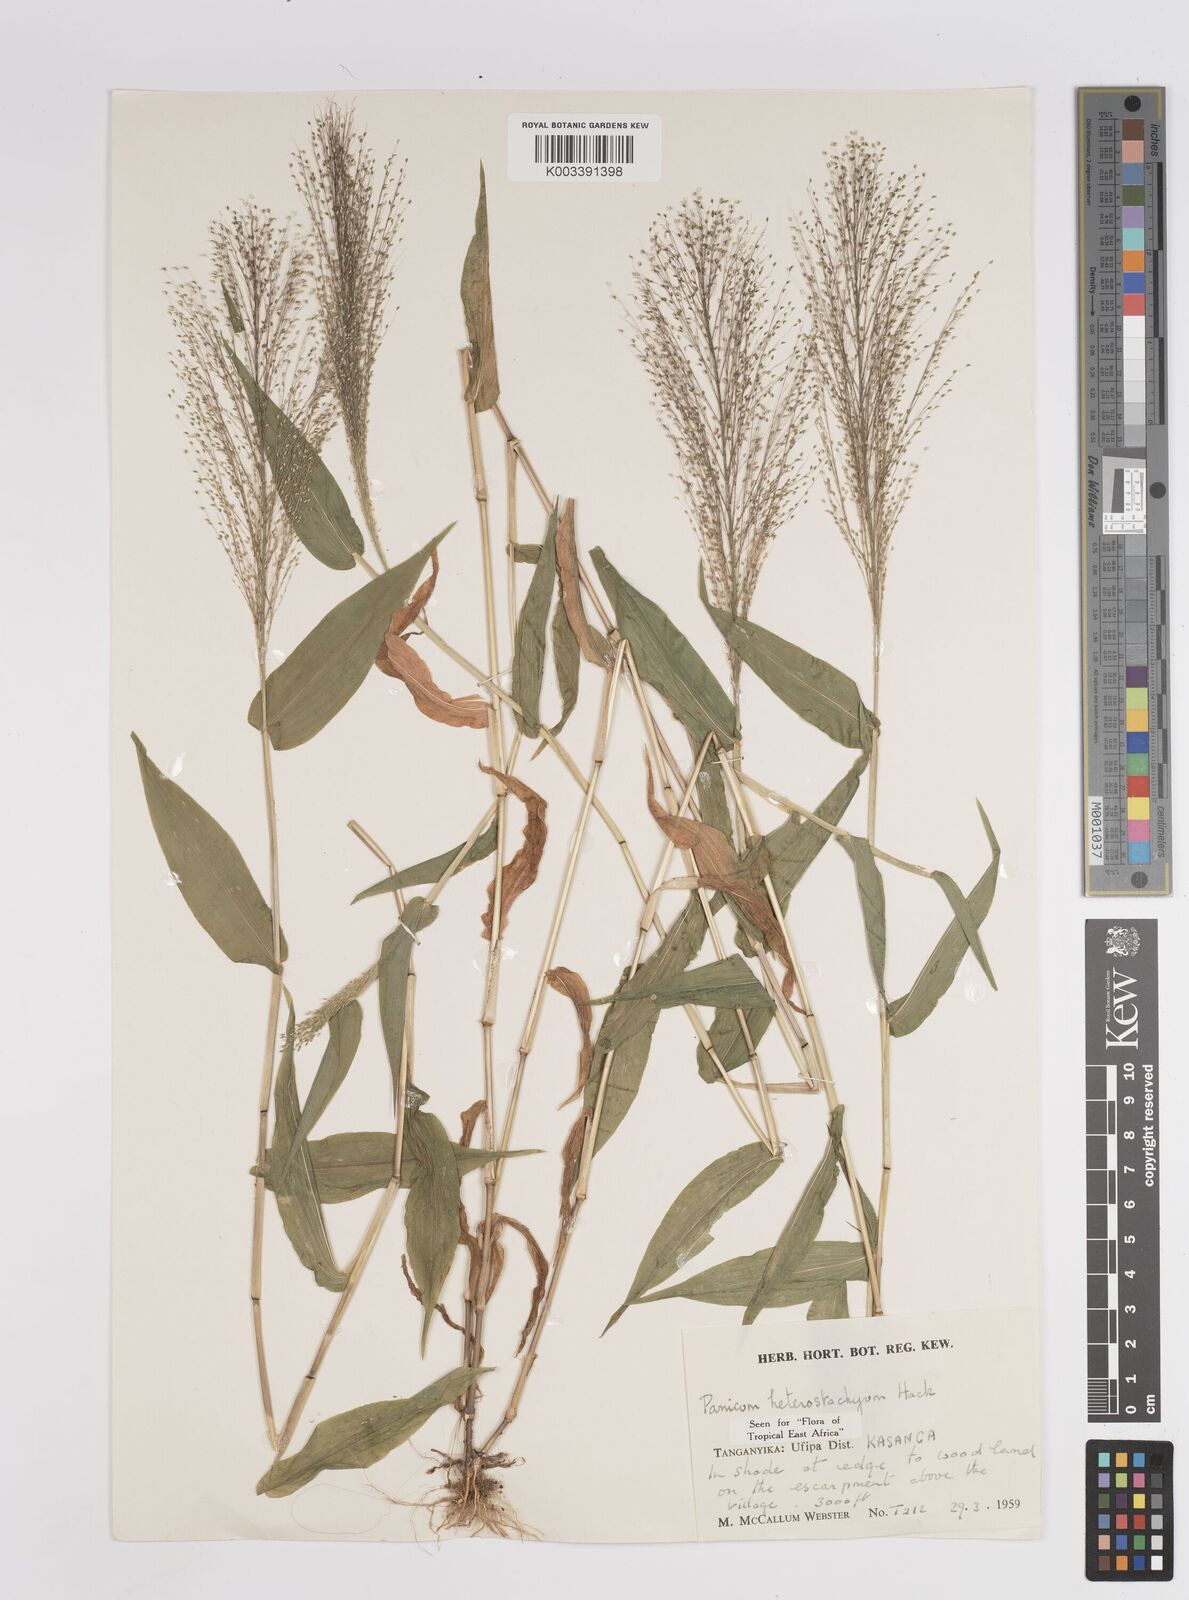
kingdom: Plantae
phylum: Tracheophyta
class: Liliopsida
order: Poales
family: Poaceae
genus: Panicum
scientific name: Panicum hirtum
